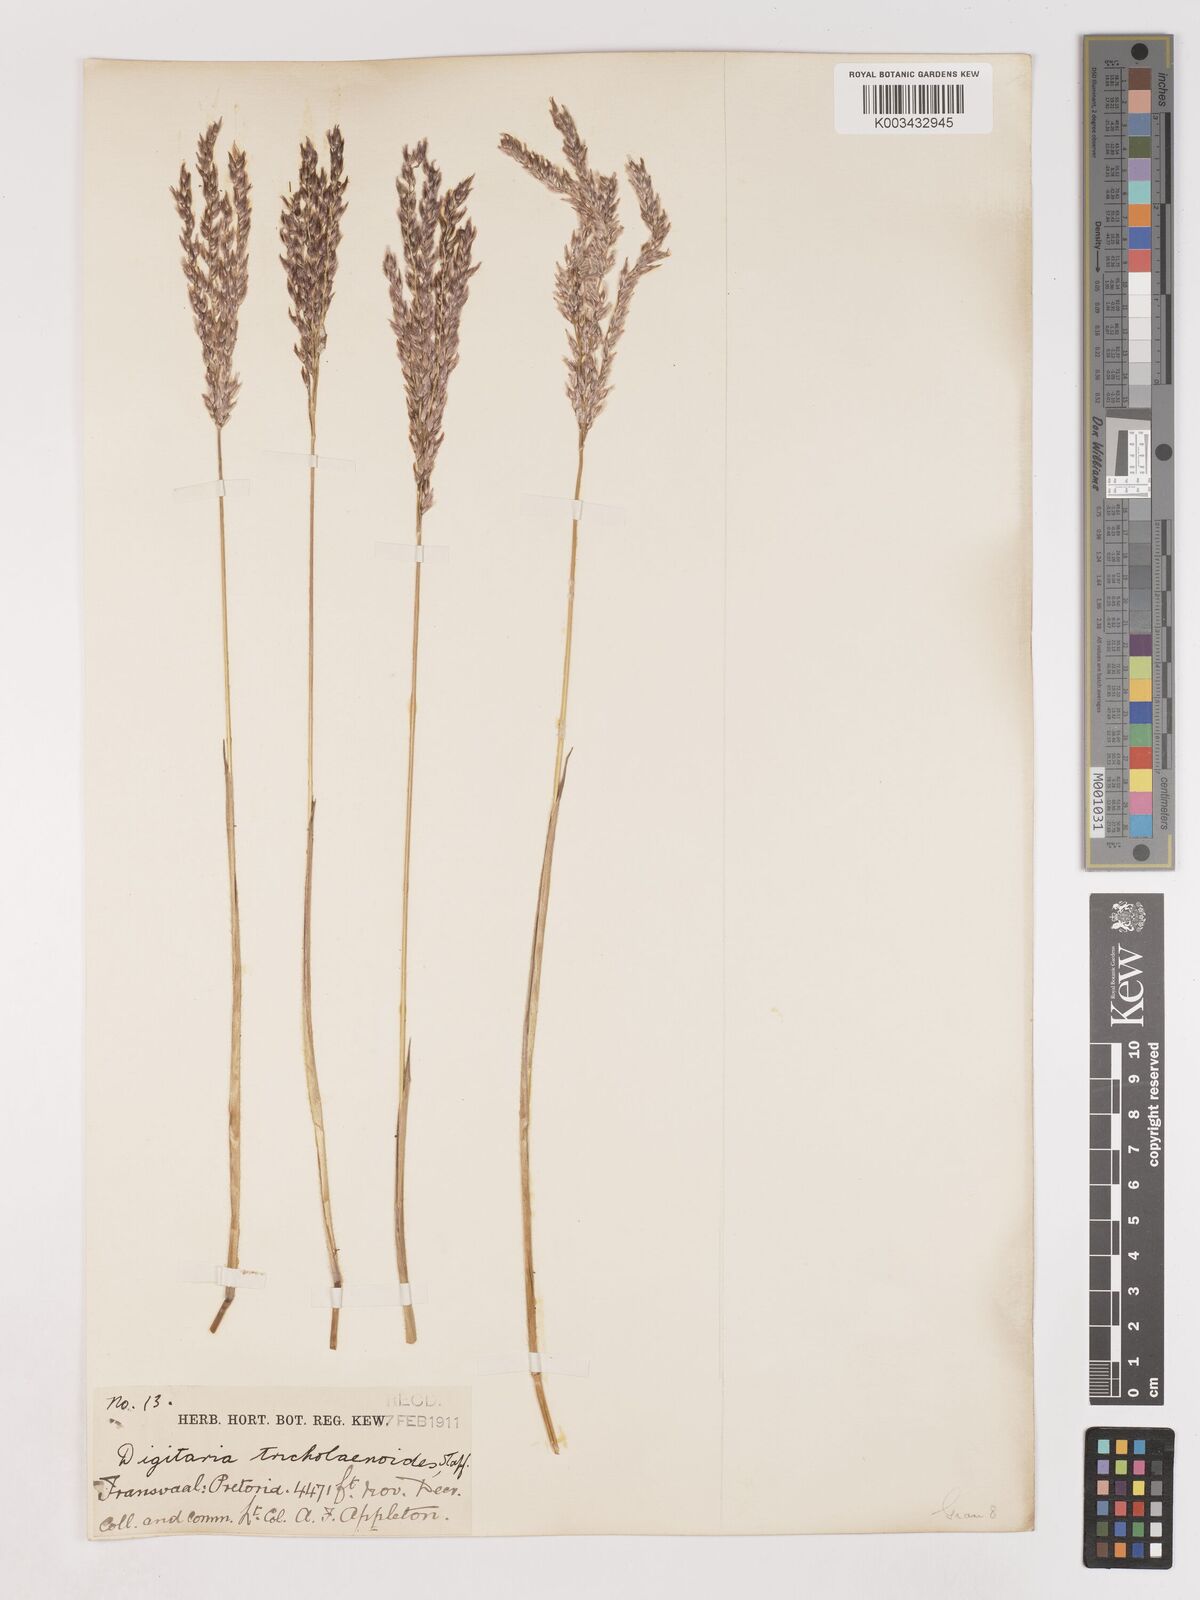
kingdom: Plantae
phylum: Tracheophyta
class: Liliopsida
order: Poales
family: Poaceae
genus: Digitaria
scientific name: Digitaria tricholaenoides
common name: Purple finger grass
